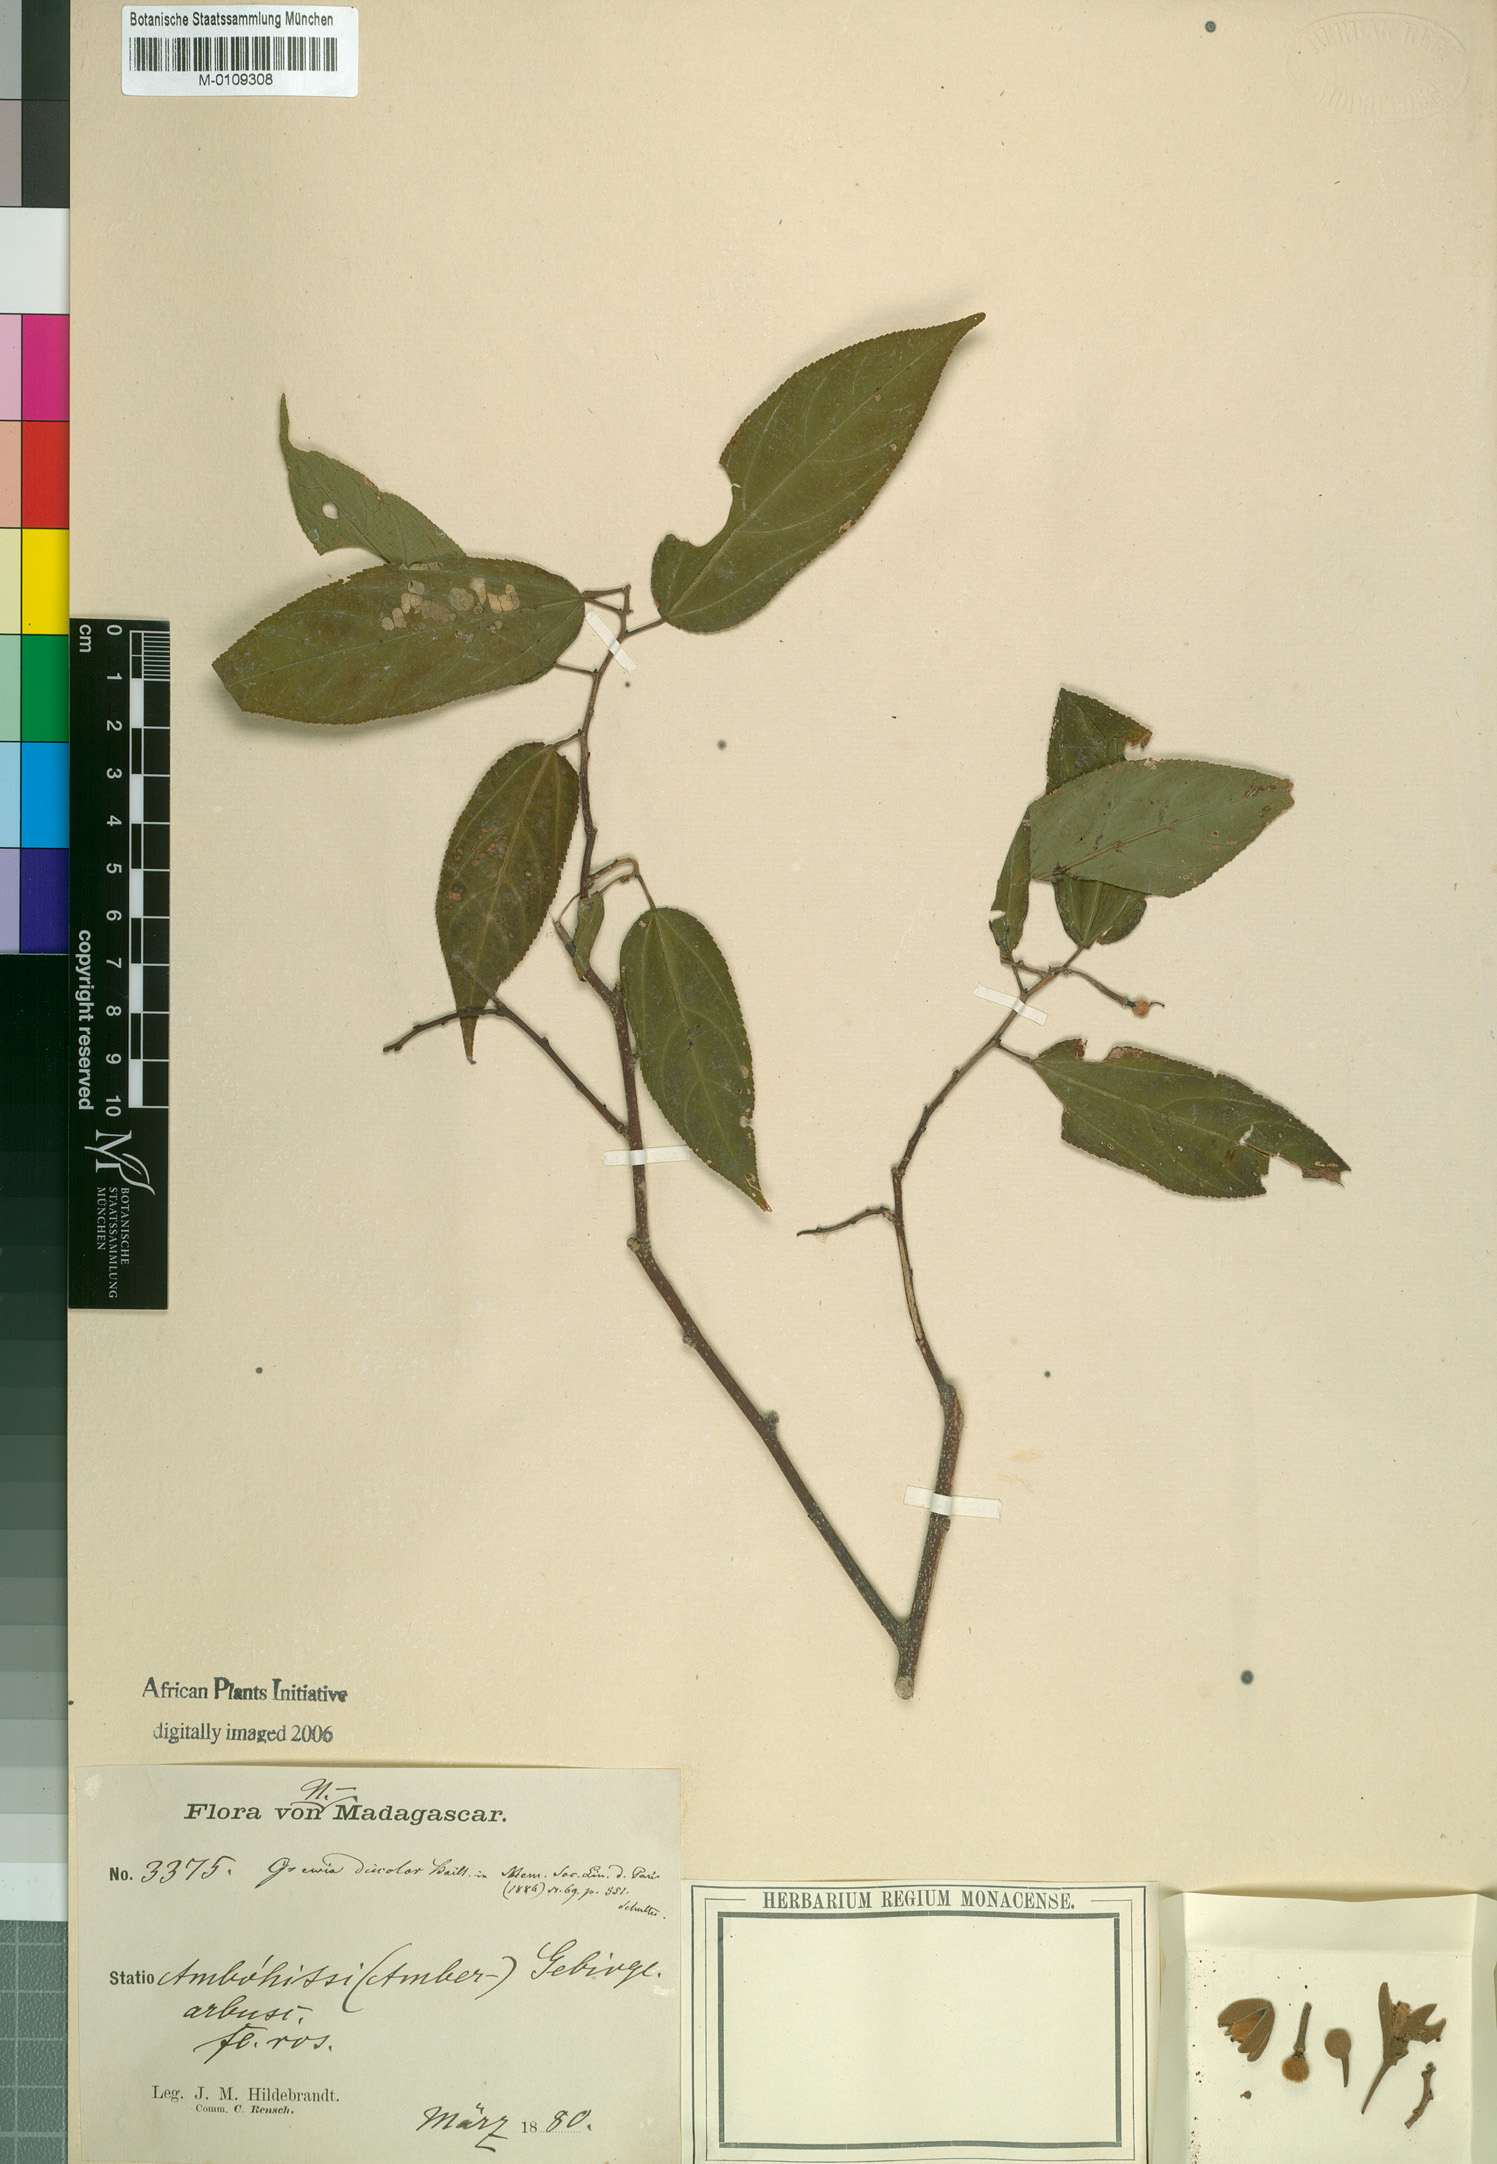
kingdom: Plantae
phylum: Tracheophyta
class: Magnoliopsida
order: Malvales
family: Malvaceae
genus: Grewia
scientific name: Grewia madagascariensis
